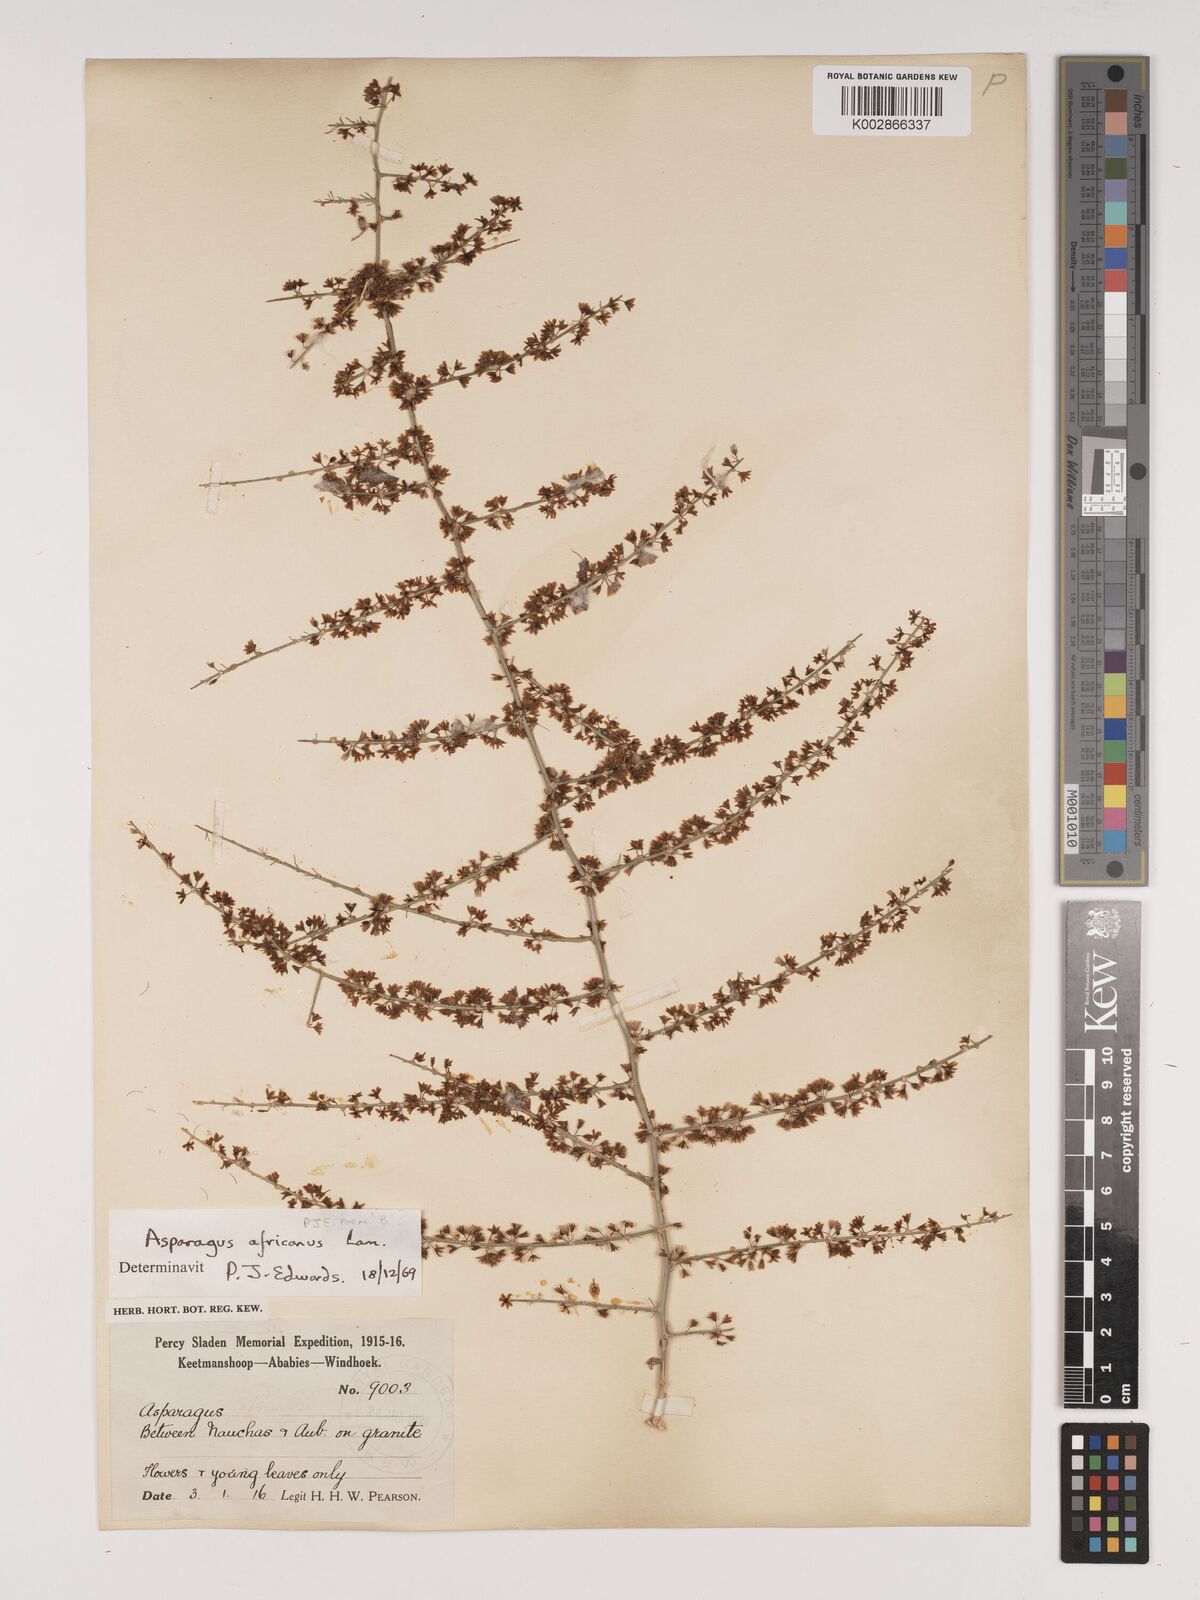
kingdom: Plantae
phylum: Tracheophyta
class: Liliopsida
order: Asparagales
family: Asparagaceae
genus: Asparagus
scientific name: Asparagus africanus
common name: Asparagus-fern
